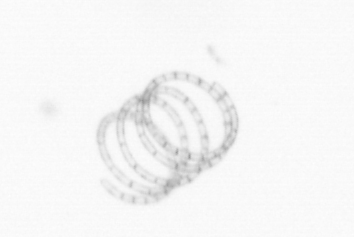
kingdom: Chromista
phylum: Ochrophyta
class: Bacillariophyceae
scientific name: Bacillariophyceae
